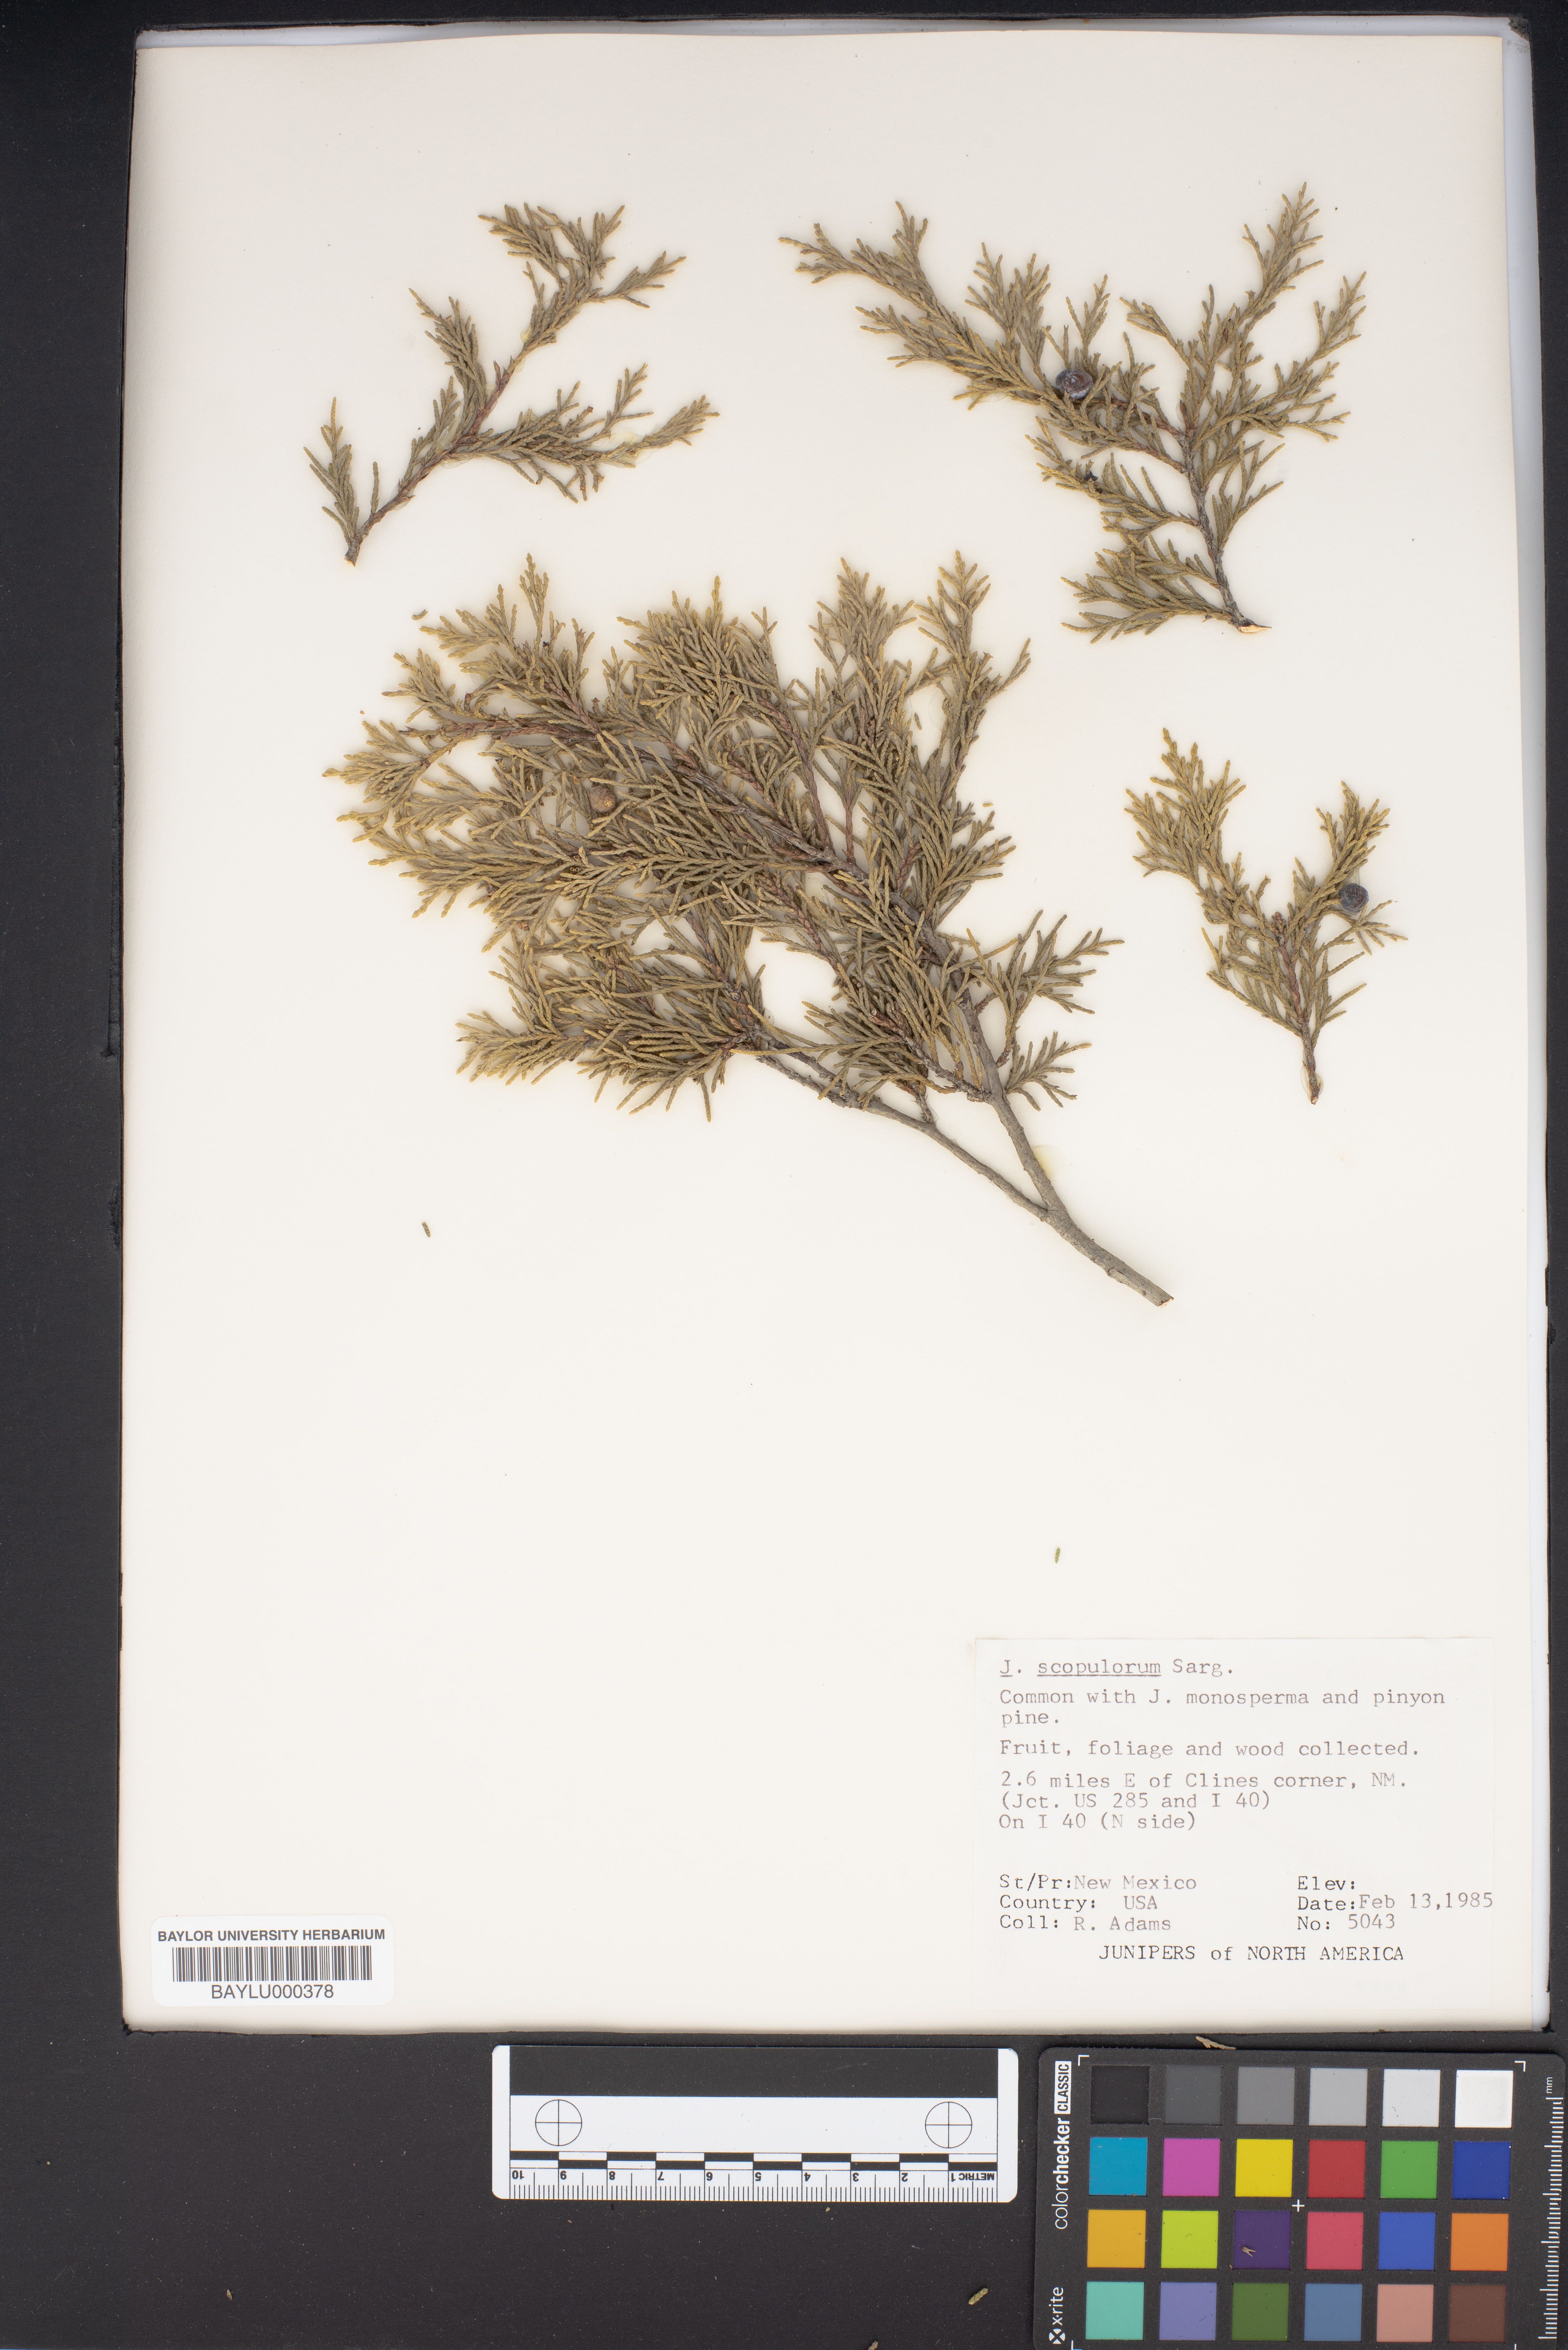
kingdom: Plantae
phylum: Tracheophyta
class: Pinopsida
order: Pinales
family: Cupressaceae
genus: Juniperus
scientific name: Juniperus scopulorum
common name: Rocky mountain juniper
